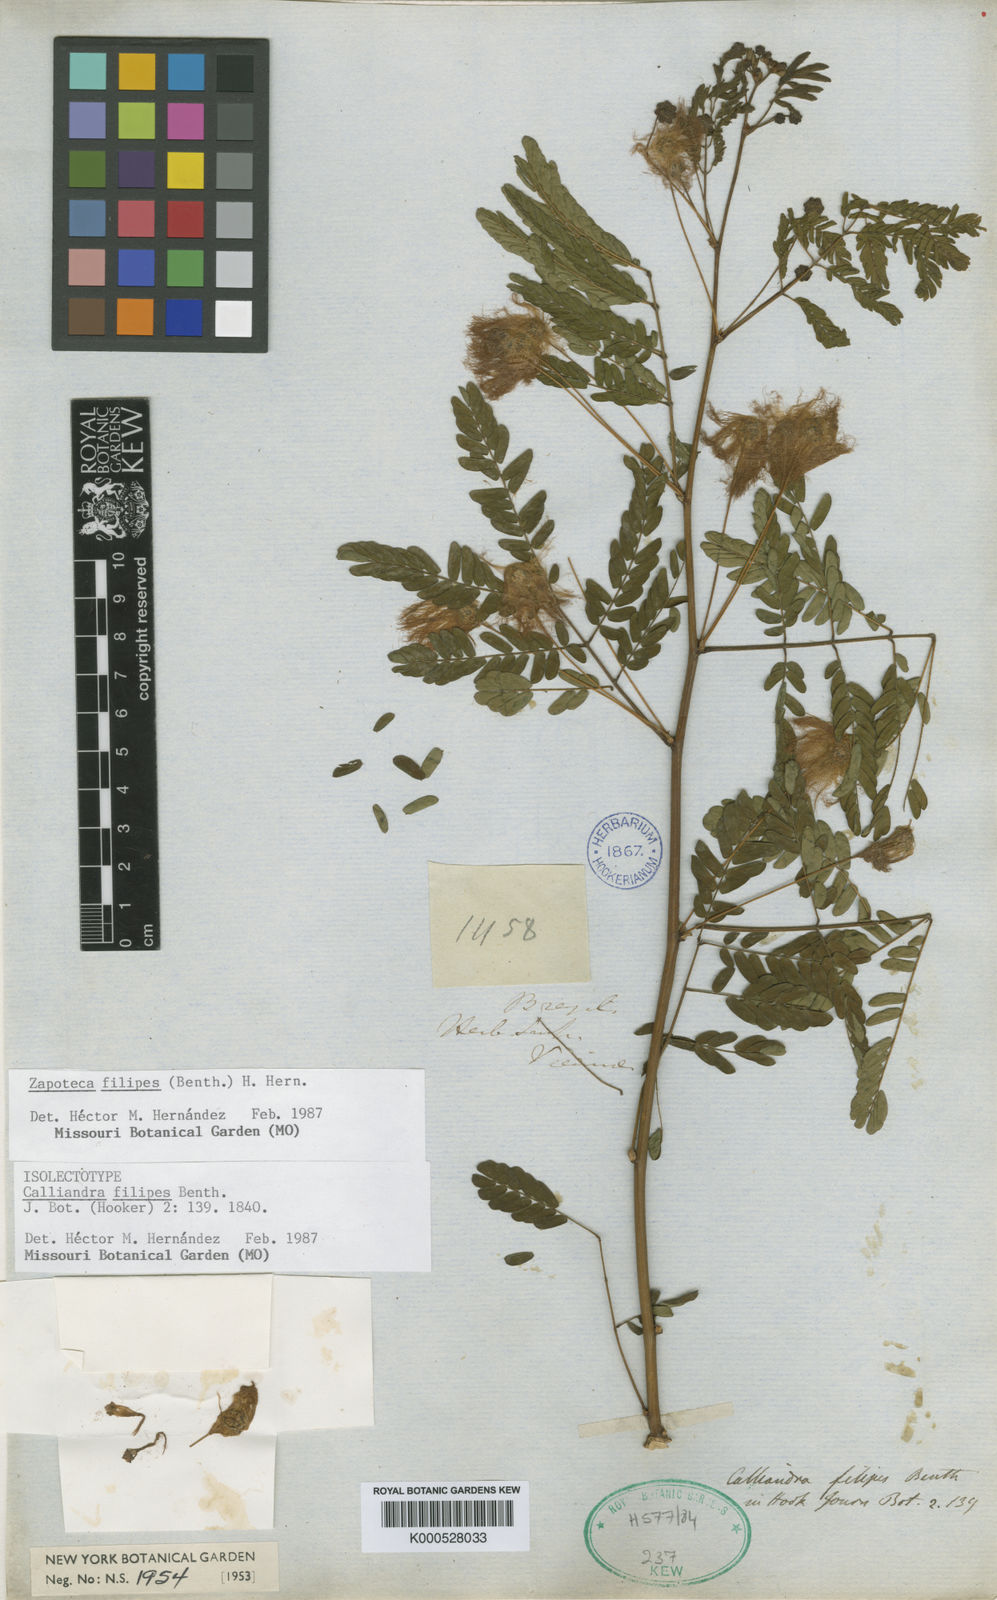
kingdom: Plantae
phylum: Tracheophyta
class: Magnoliopsida
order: Fabales
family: Fabaceae
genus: Zapoteca
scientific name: Zapoteca filipes
